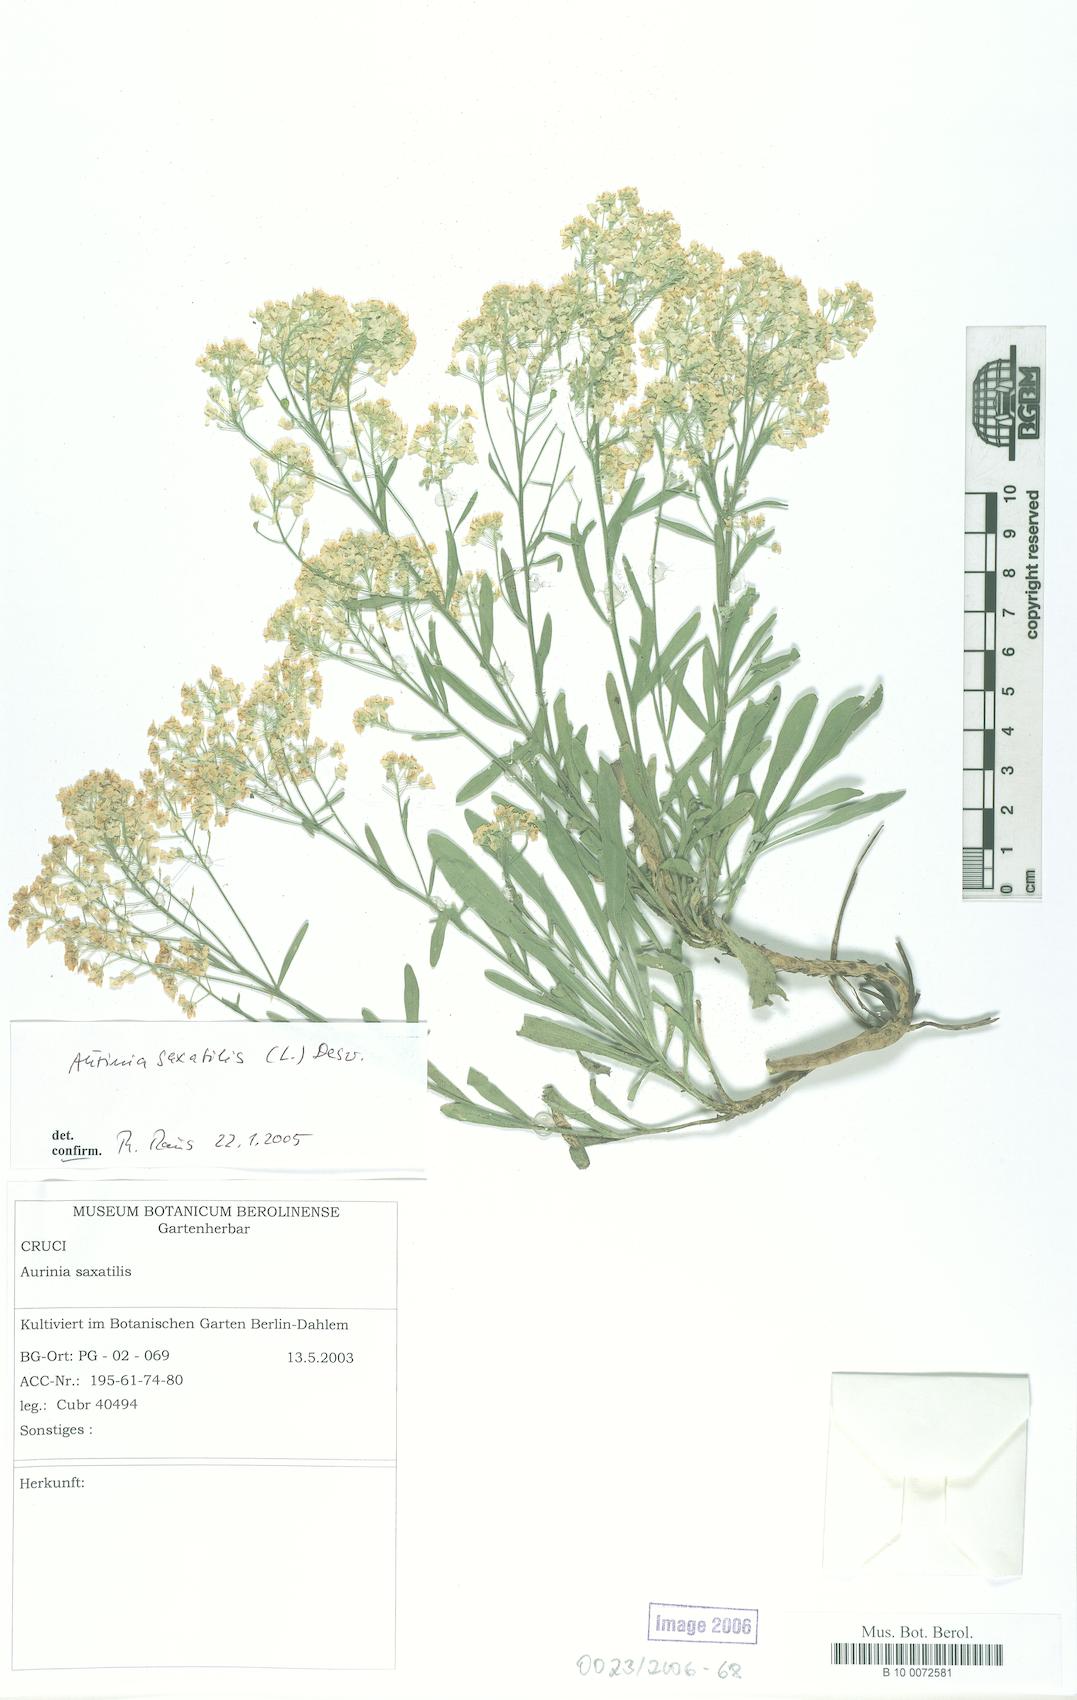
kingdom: Plantae
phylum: Tracheophyta
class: Magnoliopsida
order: Brassicales
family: Brassicaceae
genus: Aurinia
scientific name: Aurinia saxatilis
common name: Golden-tuft alyssum
